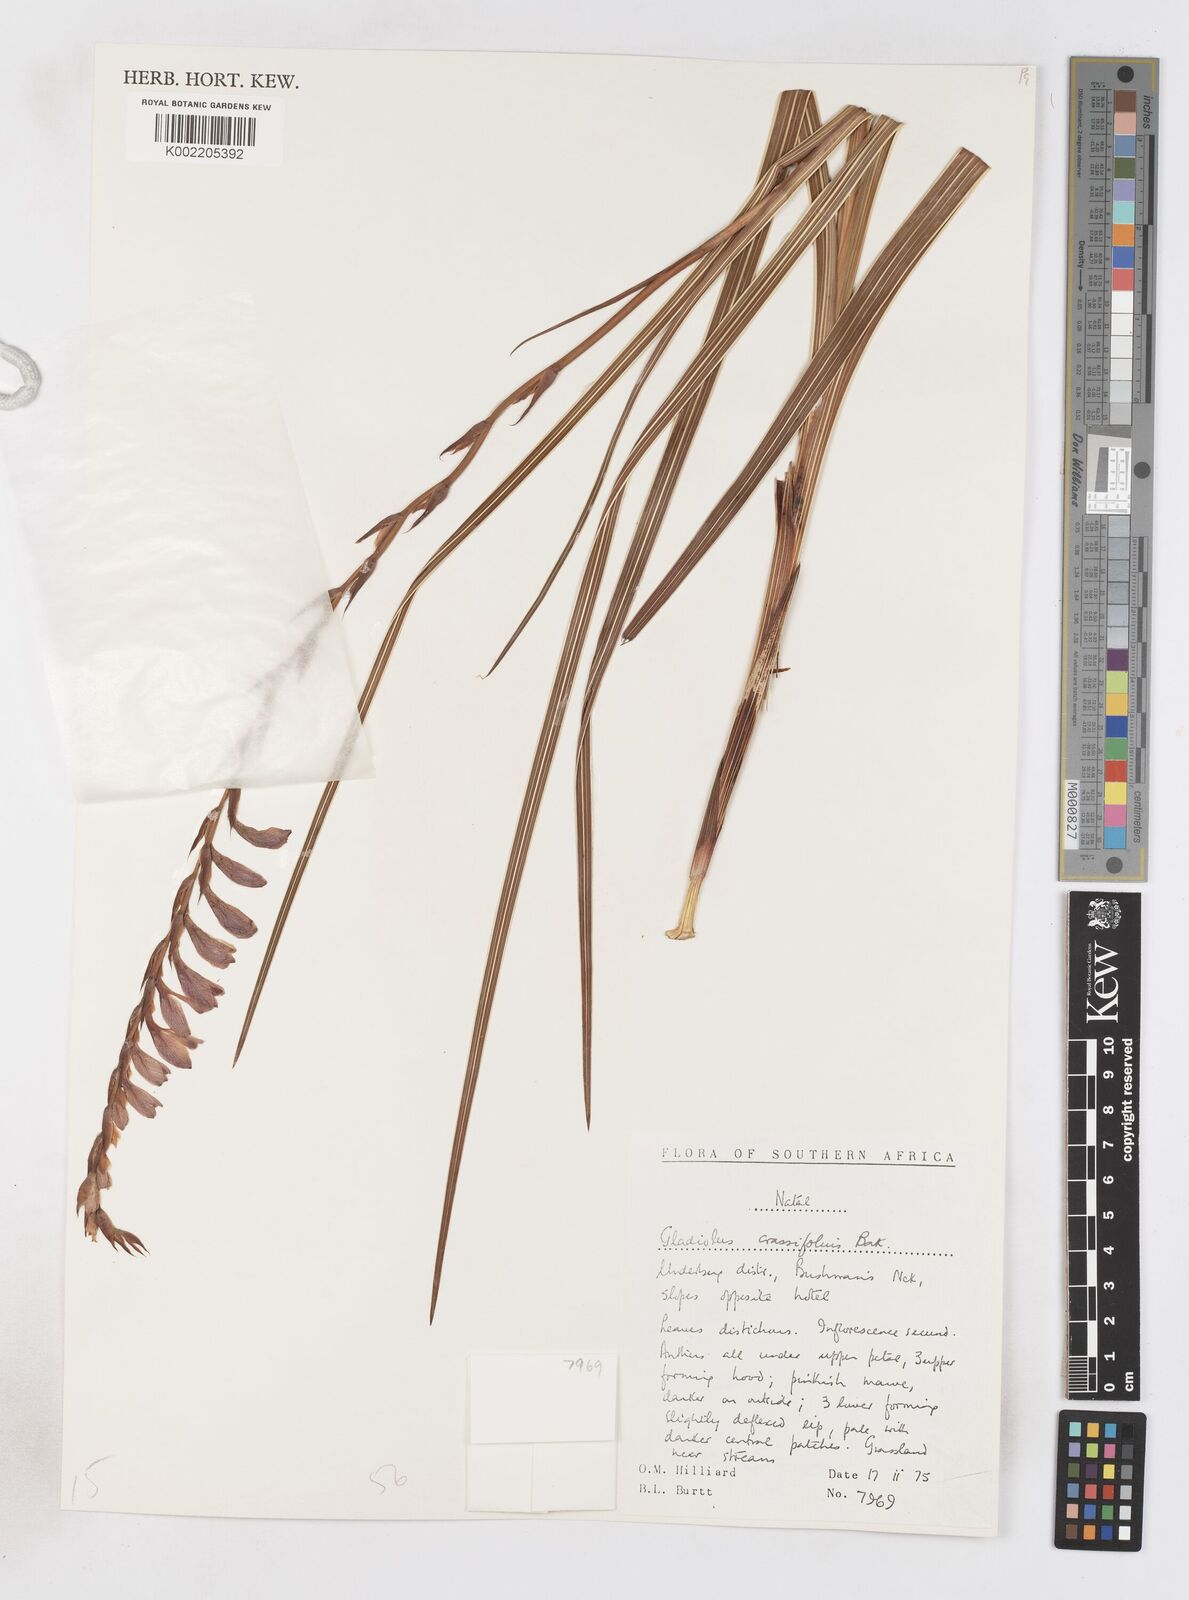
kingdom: Plantae
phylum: Tracheophyta
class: Liliopsida
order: Asparagales
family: Iridaceae
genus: Gladiolus
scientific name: Gladiolus crassifolius
